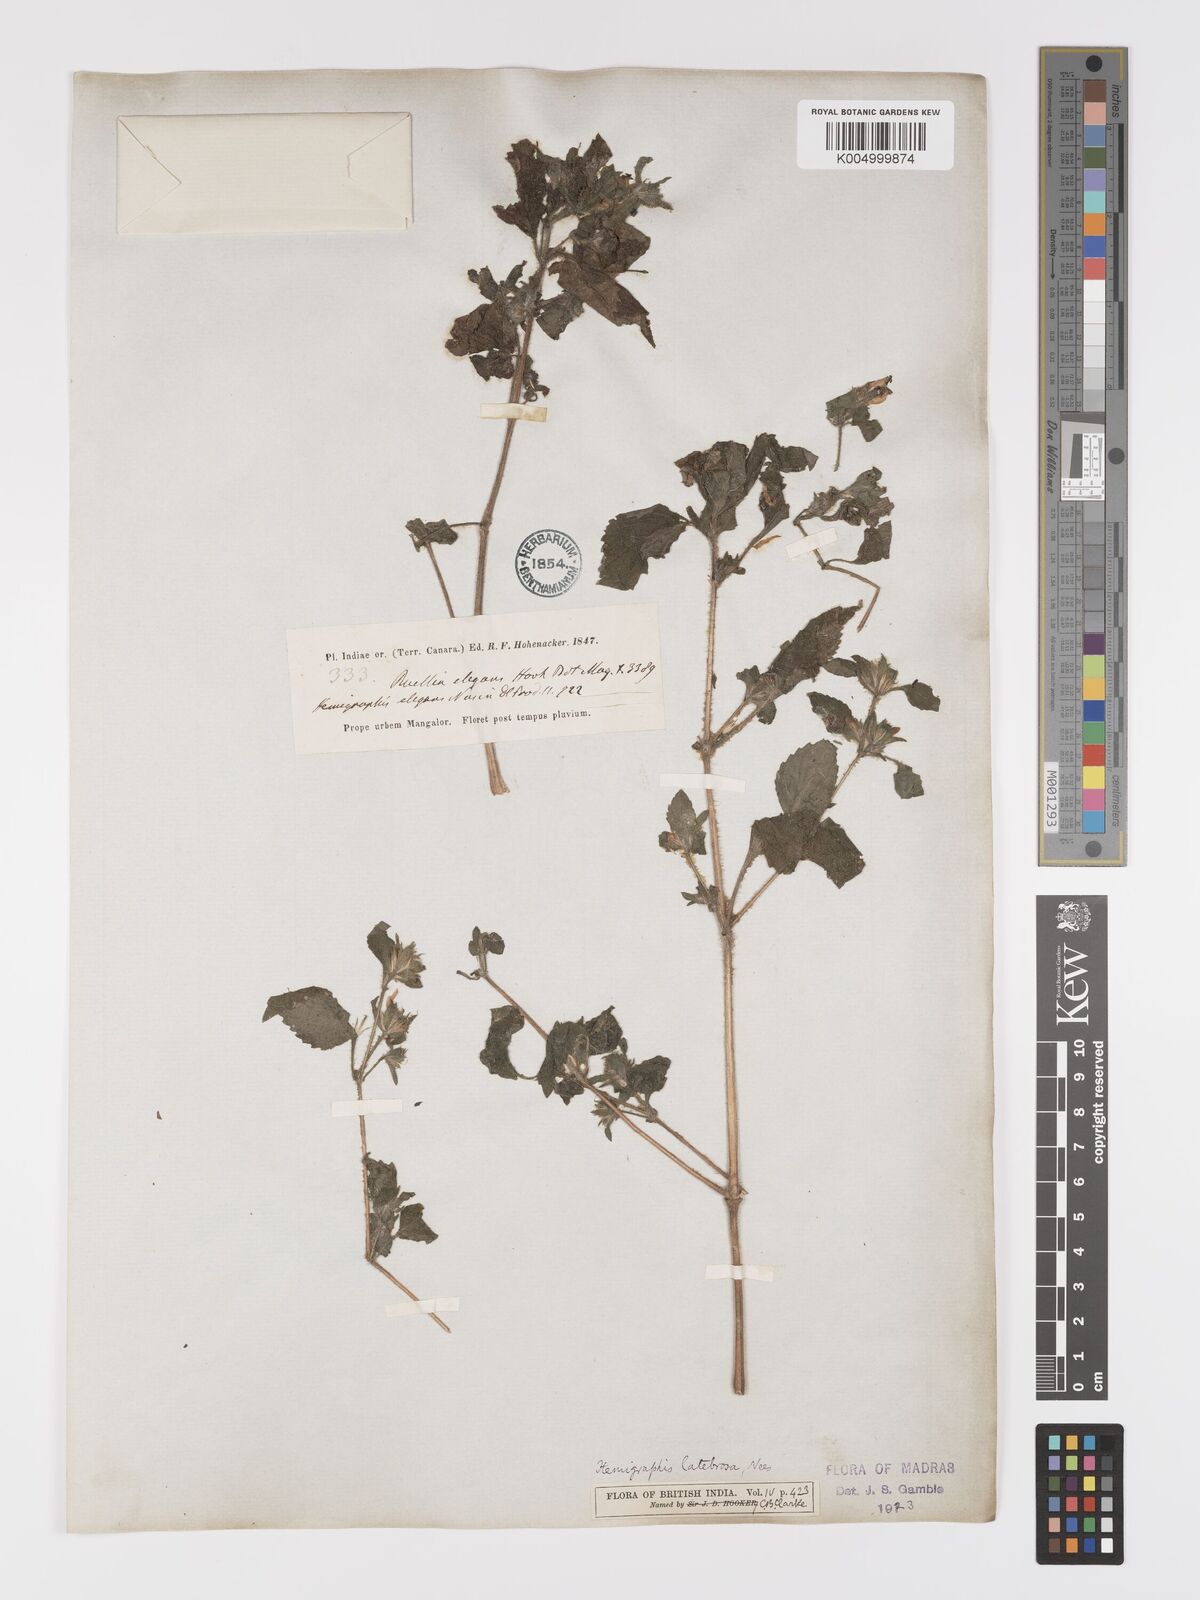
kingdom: Plantae
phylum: Tracheophyta
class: Magnoliopsida
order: Lamiales
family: Acanthaceae
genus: Strobilanthes
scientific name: Strobilanthes pavala
